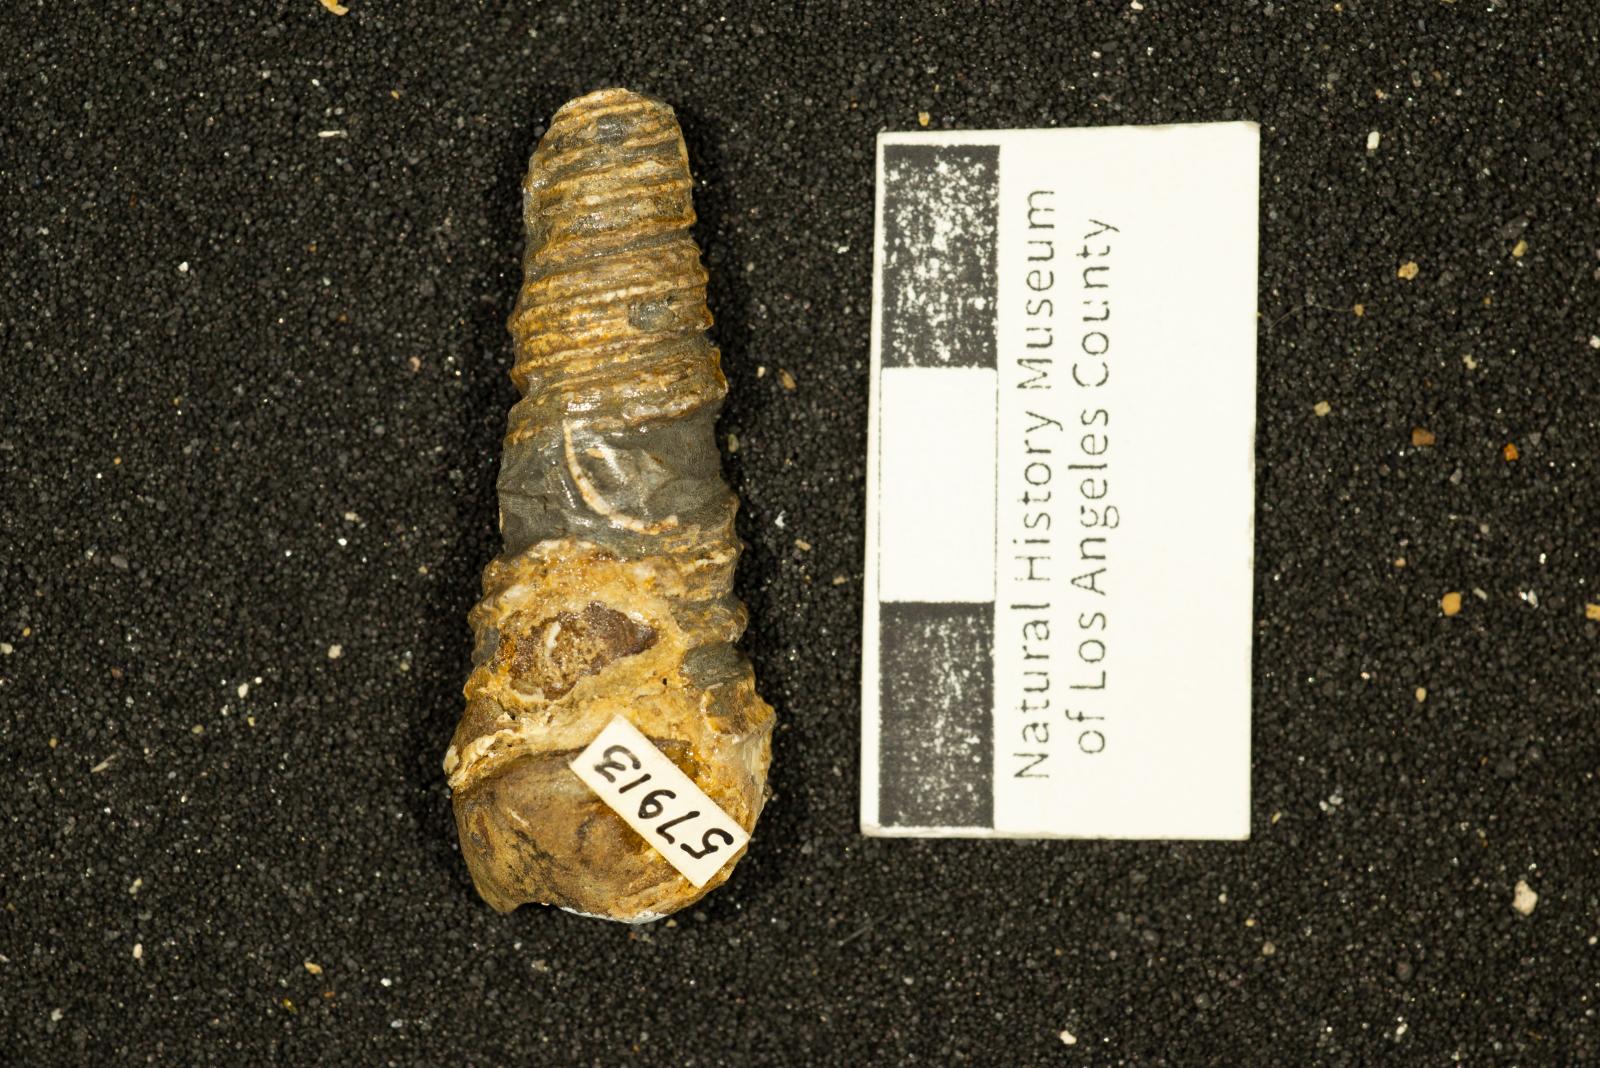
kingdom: Animalia
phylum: Mollusca
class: Gastropoda
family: Turritellidae
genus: Turritella
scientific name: Turritella packardi
